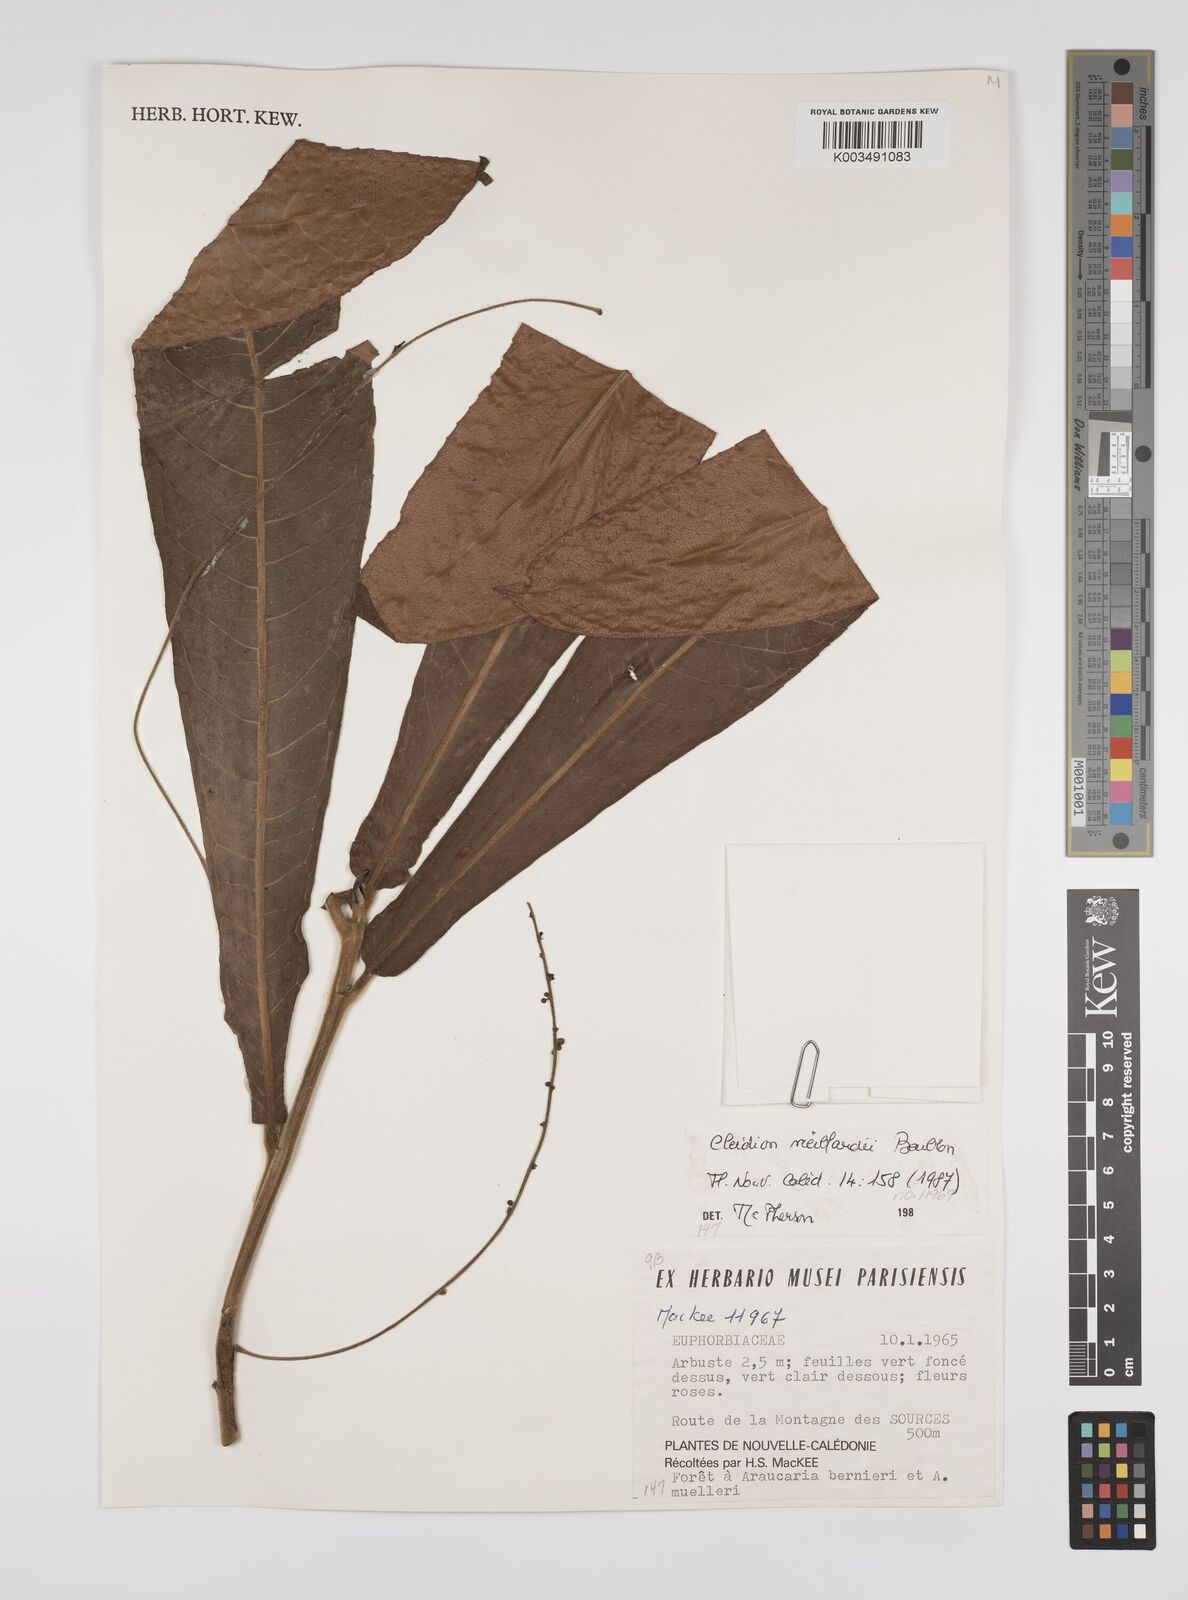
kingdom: Plantae
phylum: Tracheophyta
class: Magnoliopsida
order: Malpighiales
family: Euphorbiaceae
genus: Cleidion
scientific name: Cleidion vieillardii
